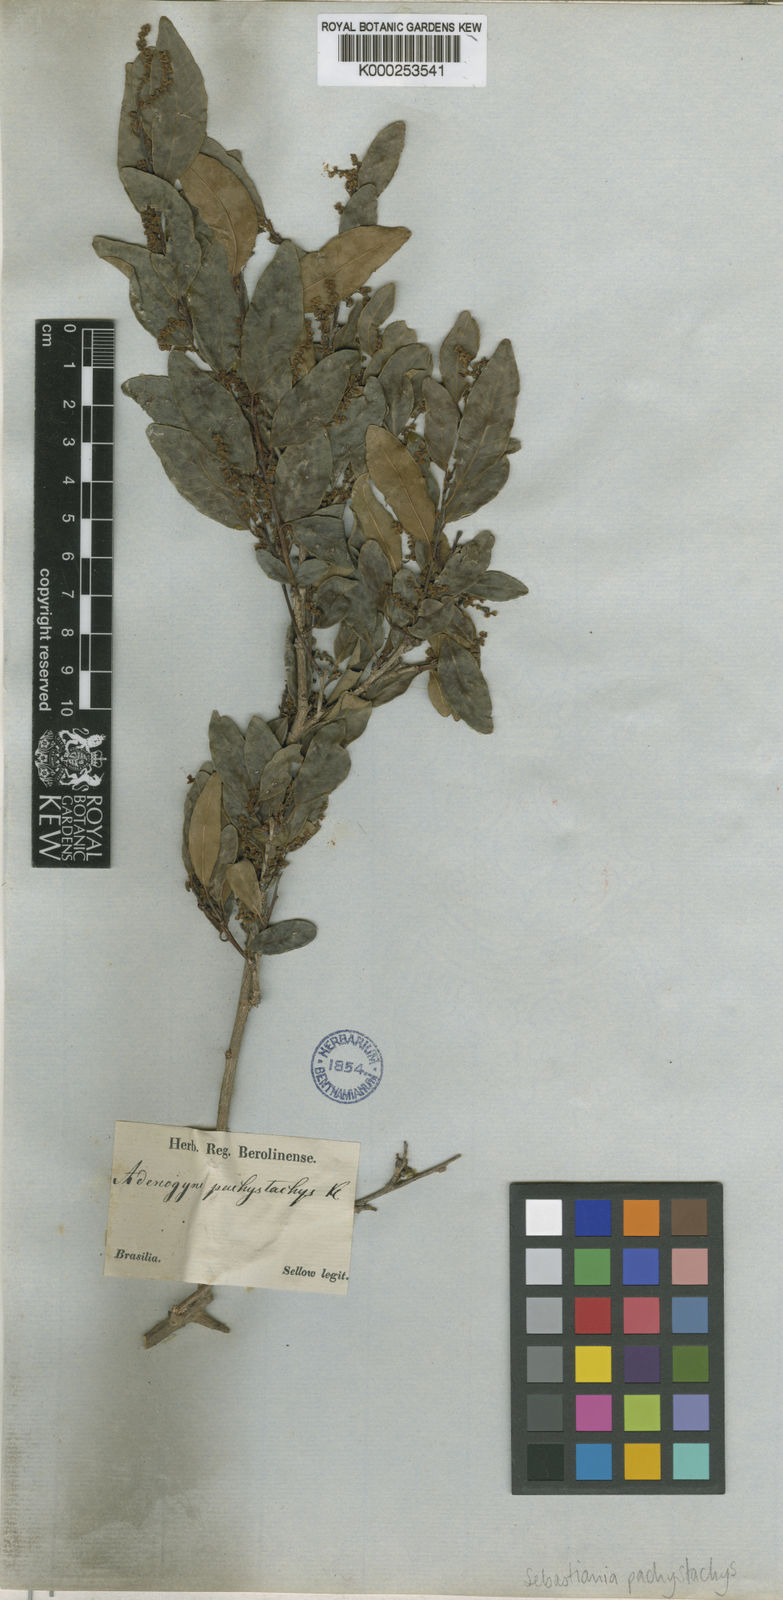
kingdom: Plantae
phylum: Tracheophyta
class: Magnoliopsida
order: Malpighiales
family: Euphorbiaceae
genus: Gymnanthes
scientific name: Gymnanthes
